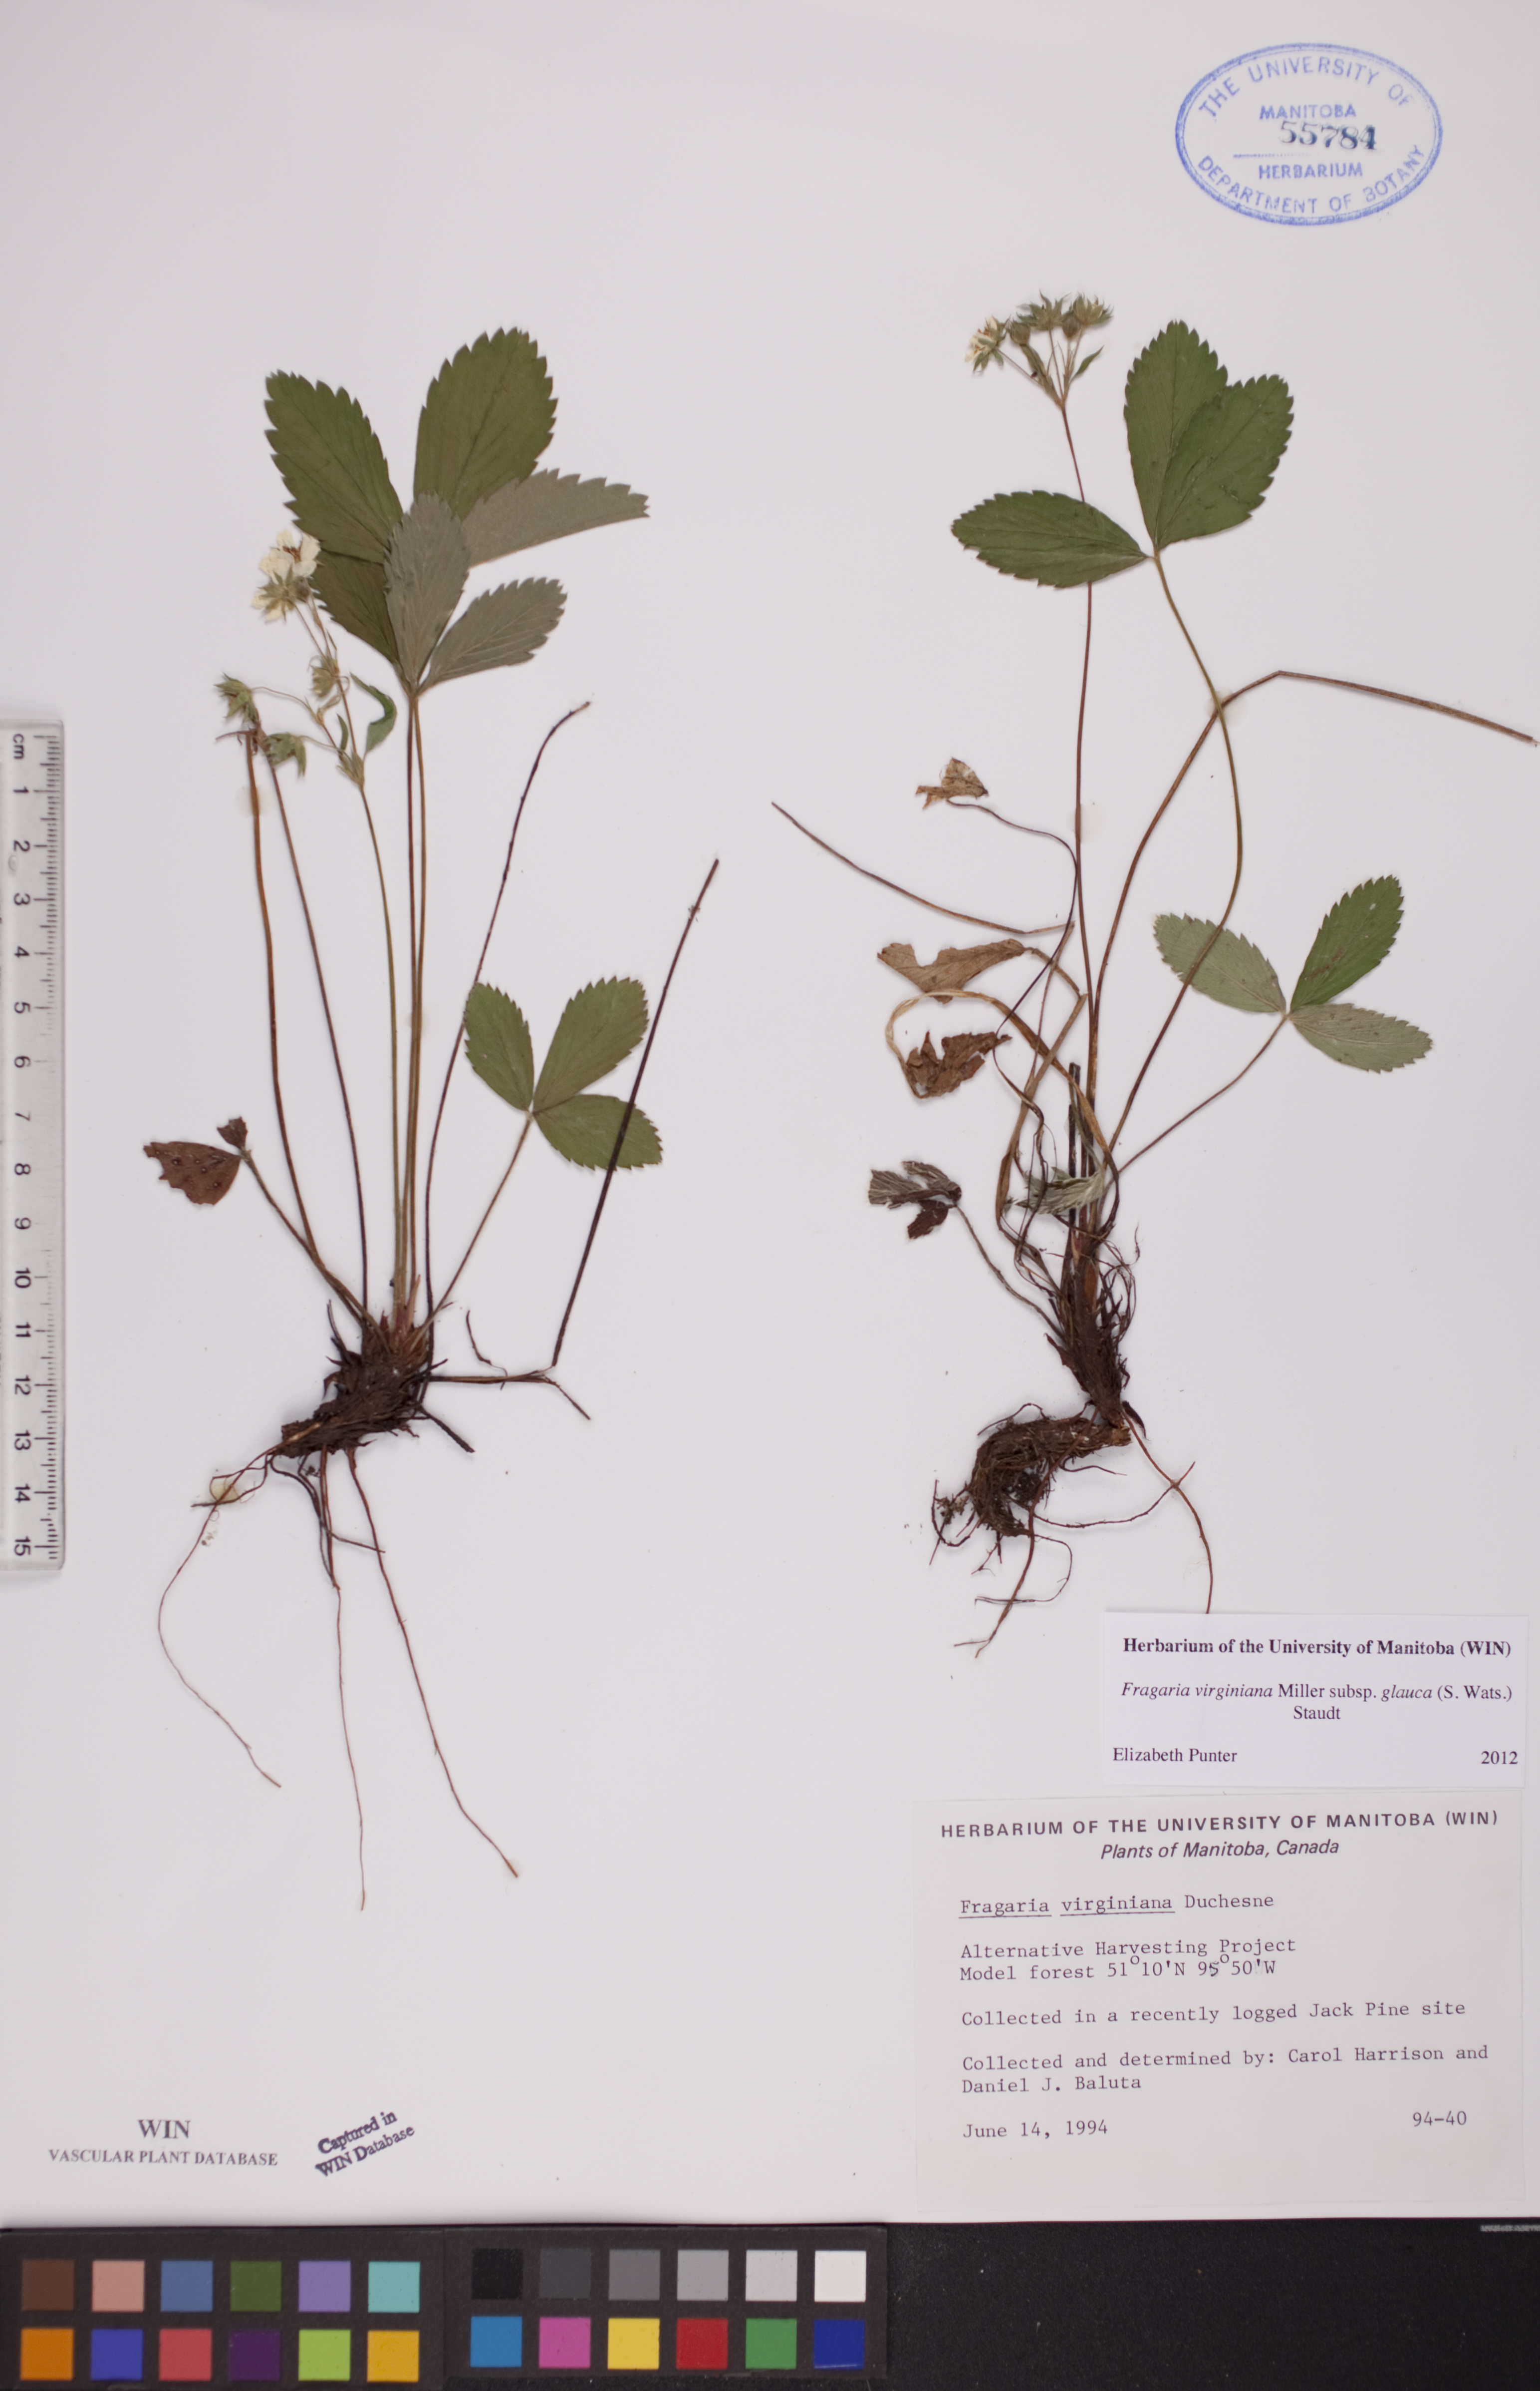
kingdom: Plantae
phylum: Tracheophyta
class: Magnoliopsida
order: Rosales
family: Rosaceae
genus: Fragaria
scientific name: Fragaria virginiana
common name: Thickleaved wild strawberry
